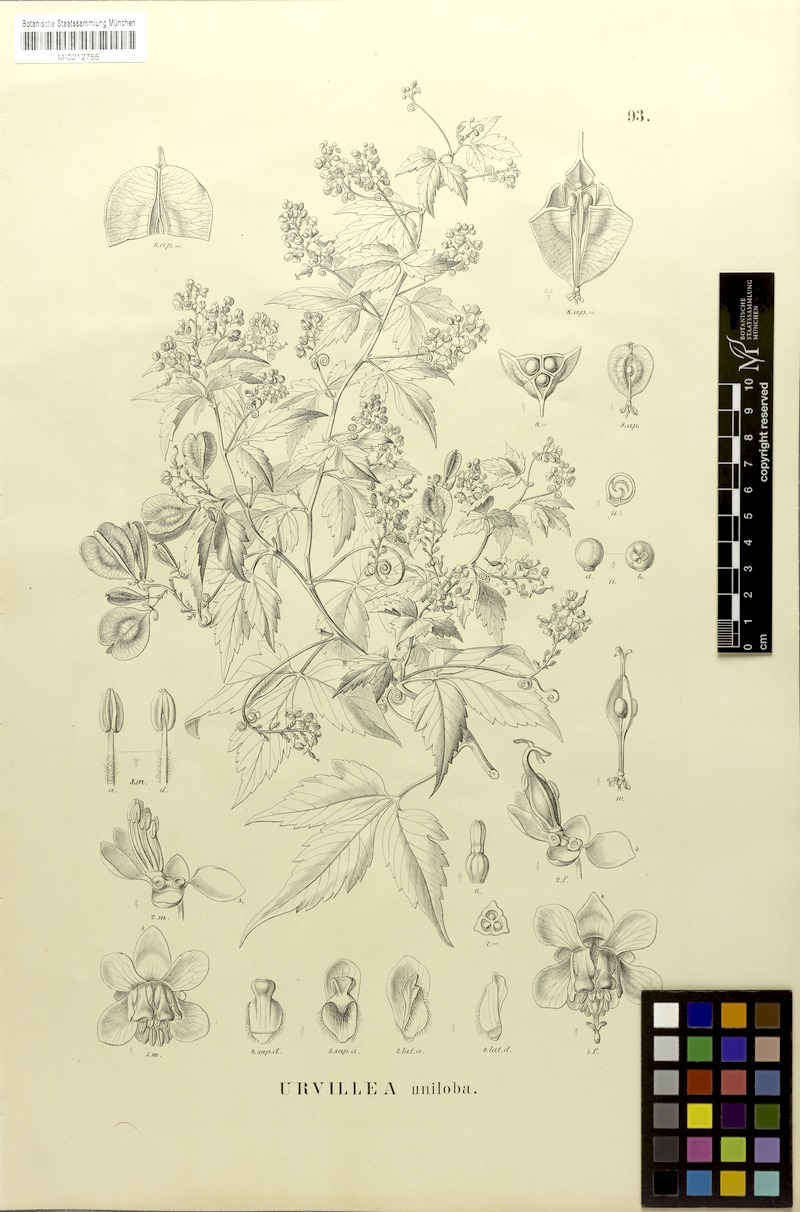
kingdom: Plantae
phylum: Tracheophyta
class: Magnoliopsida
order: Sapindales
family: Sapindaceae
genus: Urvillea
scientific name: Urvillea uniloba
